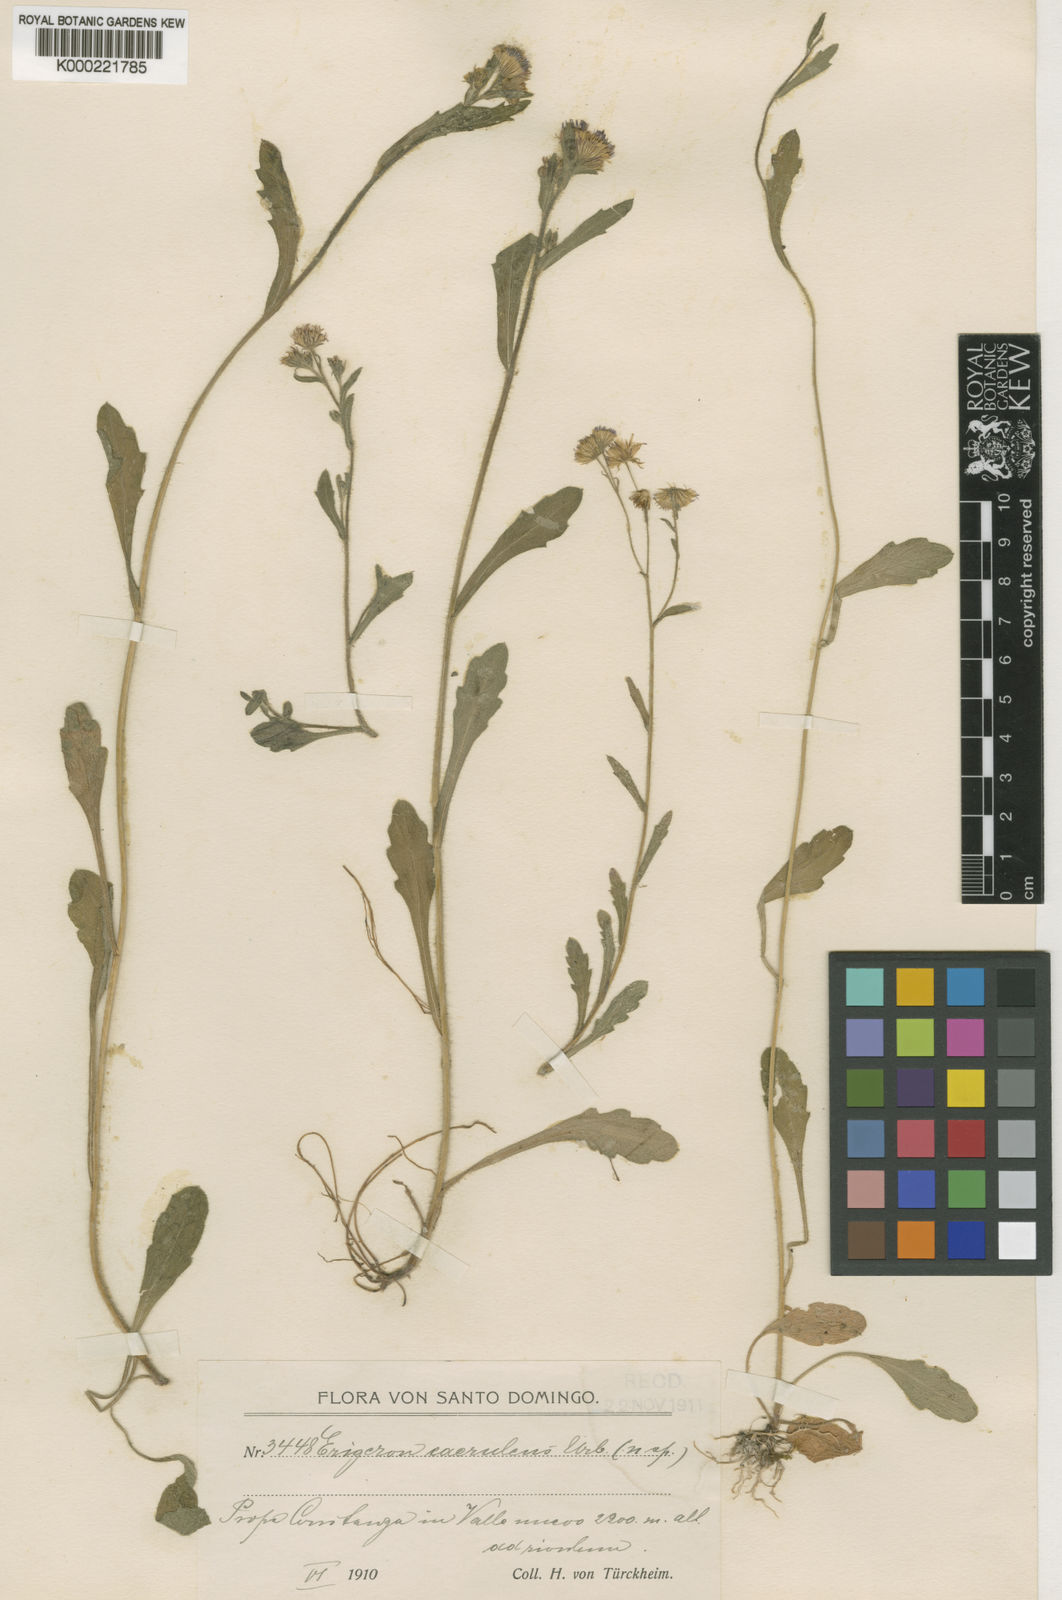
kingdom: Plantae
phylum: Tracheophyta
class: Magnoliopsida
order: Asterales
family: Asteraceae
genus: Erigeron
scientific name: Erigeron caeruleus
